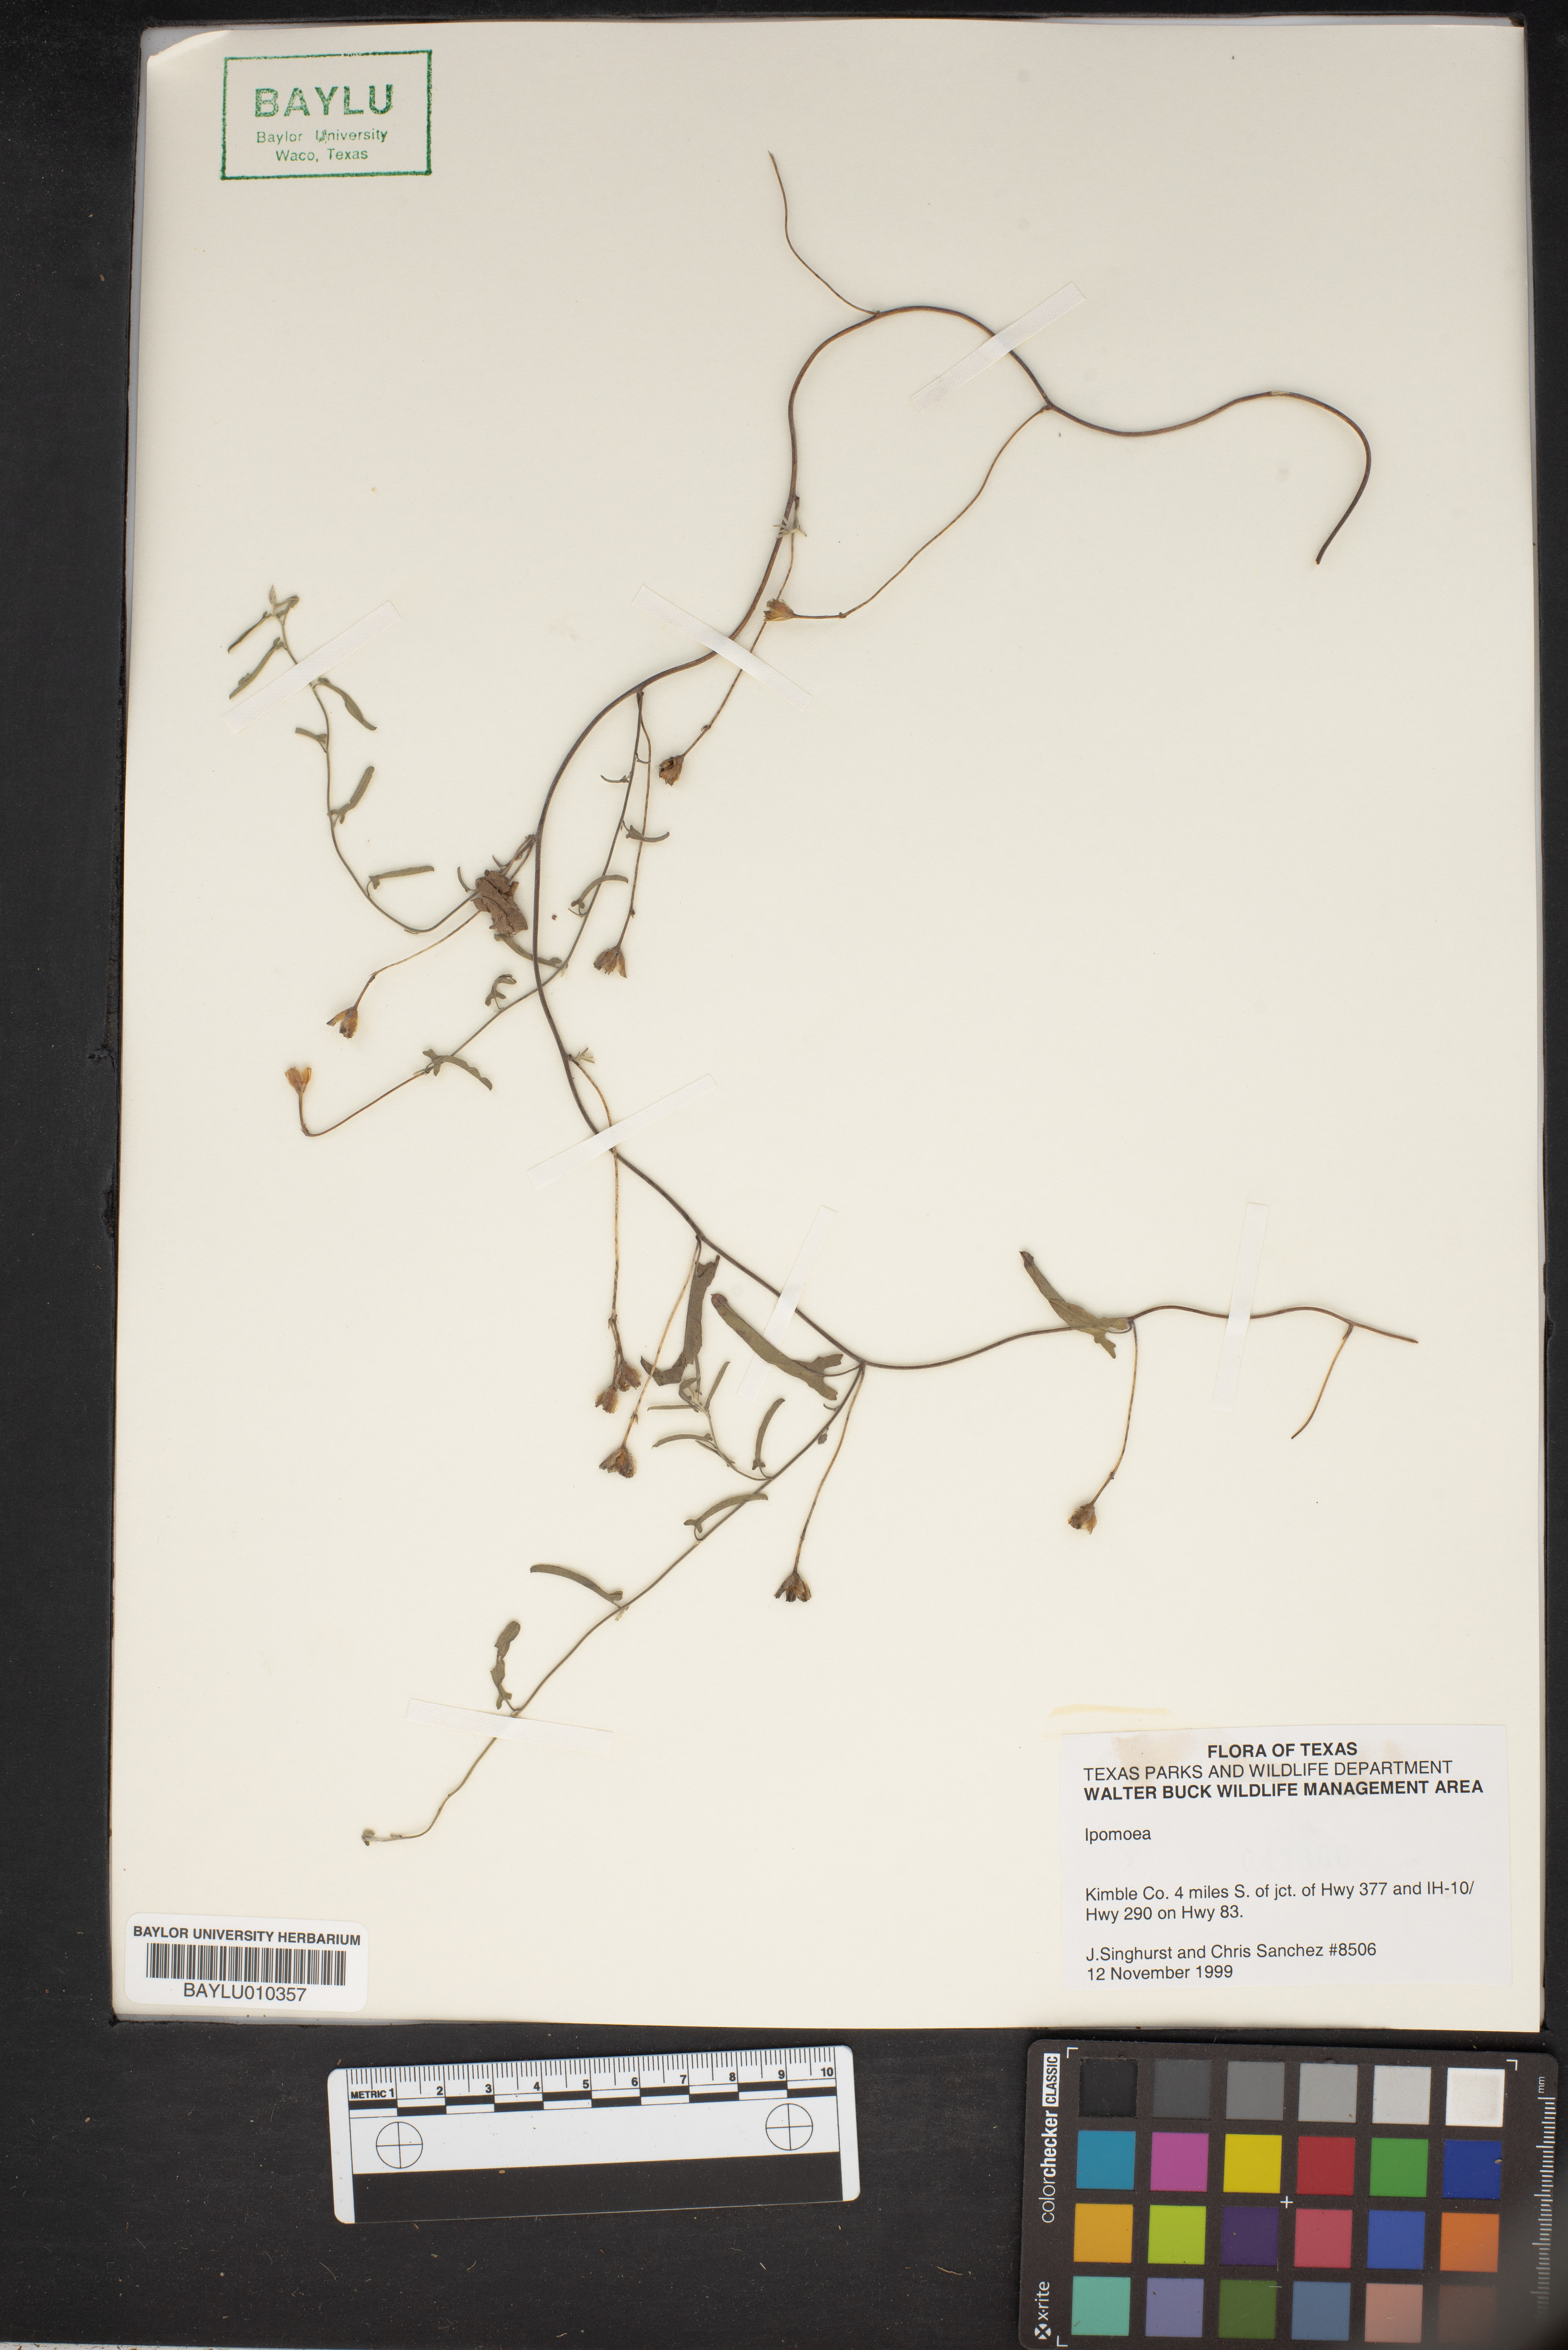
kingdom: Plantae
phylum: Tracheophyta
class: Magnoliopsida
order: Solanales
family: Convolvulaceae
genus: Ipomoea
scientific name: Ipomoea
